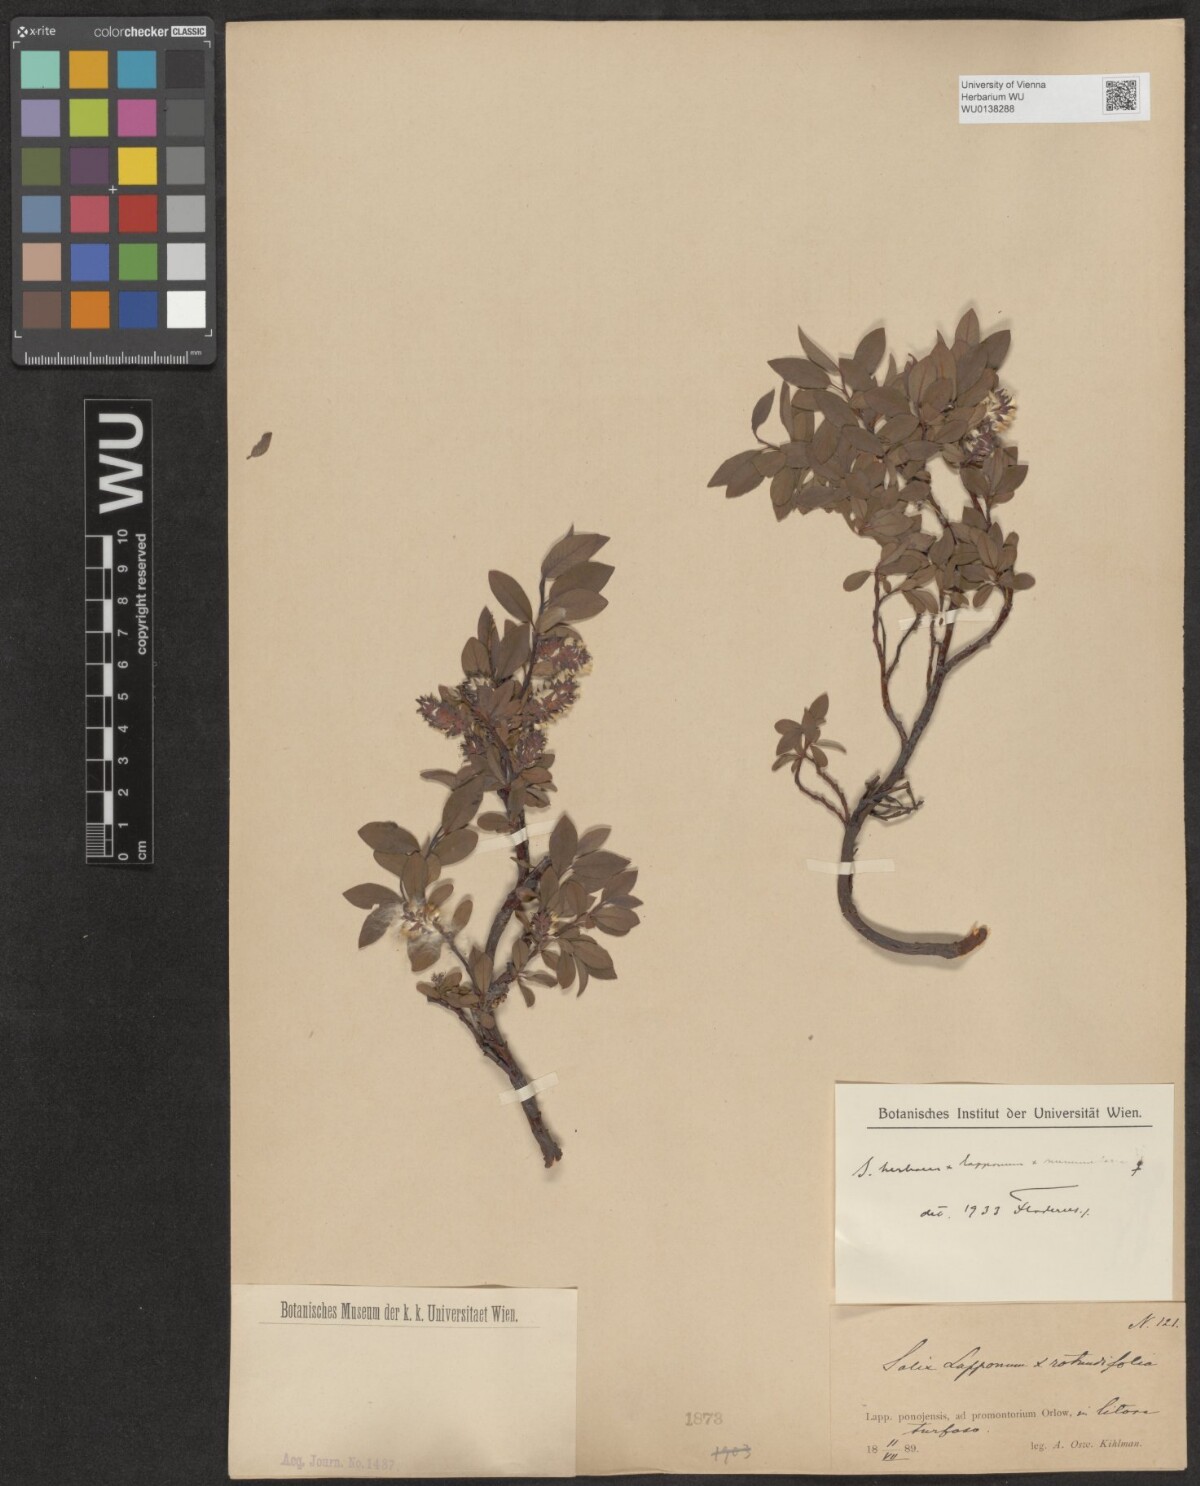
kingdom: Plantae
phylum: Tracheophyta
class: Magnoliopsida
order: Malpighiales
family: Salicaceae
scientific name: Salicaceae
